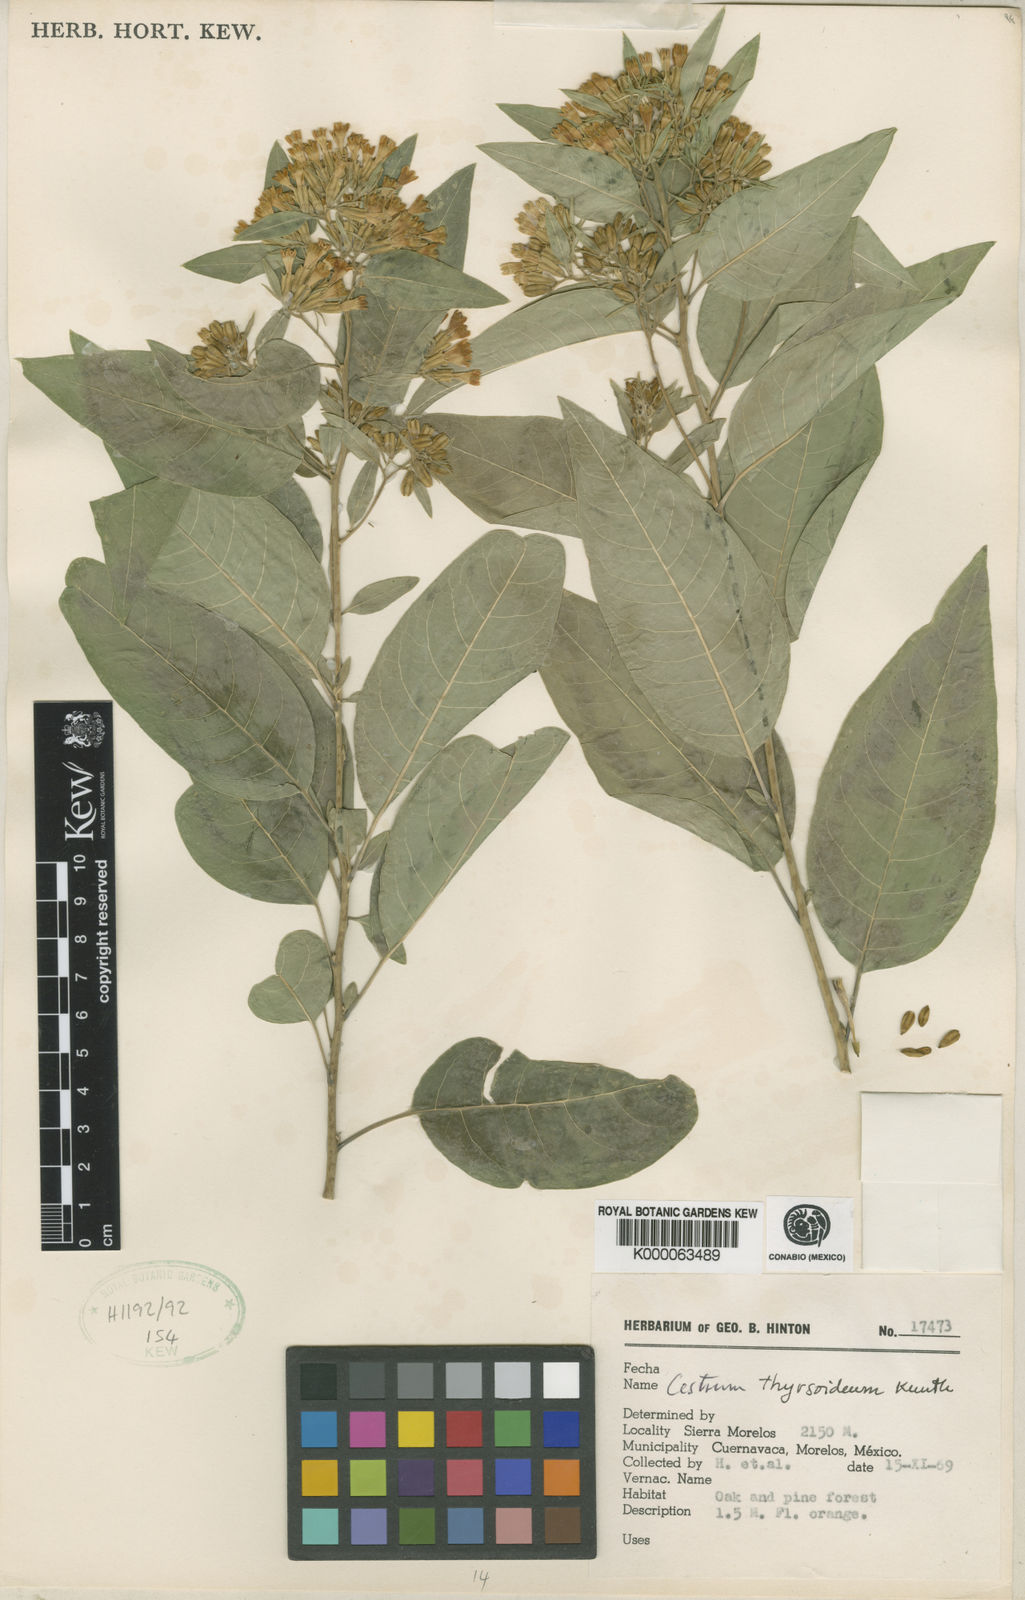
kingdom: Plantae
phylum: Tracheophyta
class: Magnoliopsida
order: Solanales
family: Solanaceae
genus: Cestrum
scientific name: Cestrum thyrsoideum
